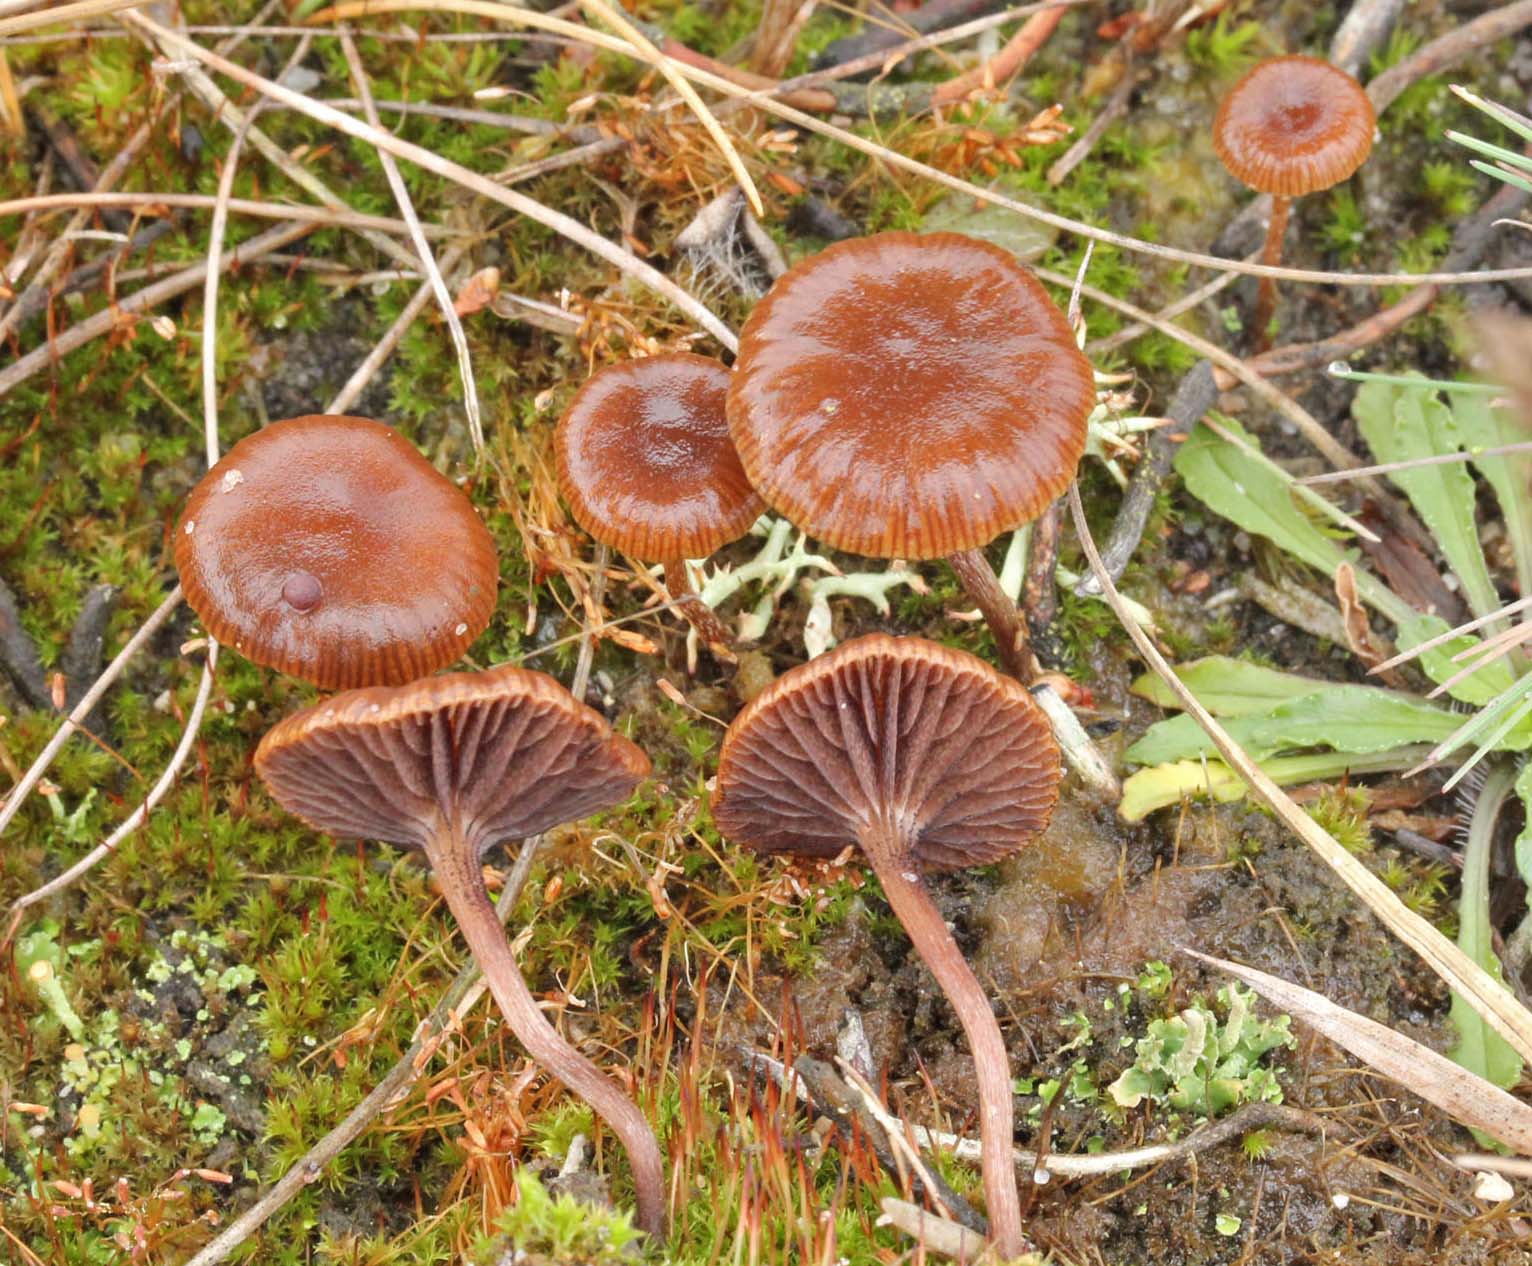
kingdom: Fungi
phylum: Basidiomycota
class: Agaricomycetes
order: Agaricales
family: Strophariaceae
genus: Deconica
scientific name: Deconica montana
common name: rødbrun stråhat
